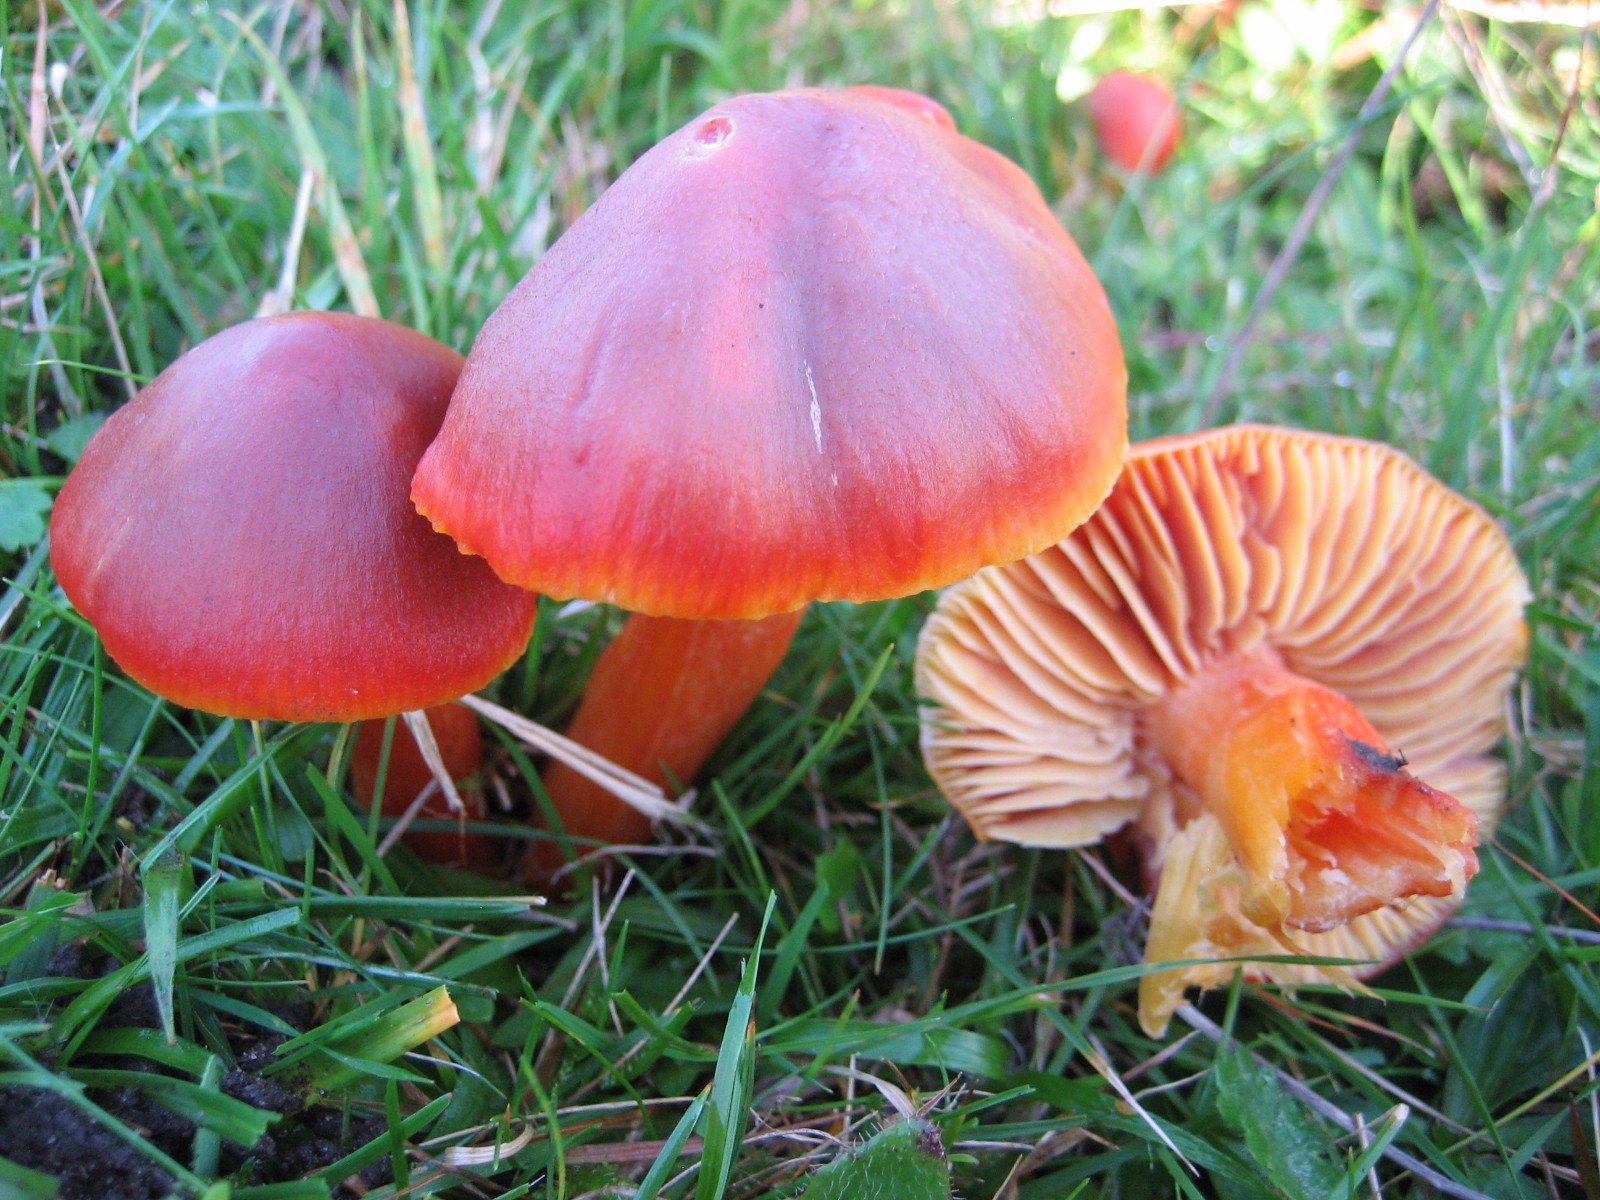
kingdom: Fungi
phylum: Basidiomycota
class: Agaricomycetes
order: Agaricales
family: Hygrophoraceae
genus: Hygrocybe
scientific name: Hygrocybe punicea
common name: skarlagen-vokshat
